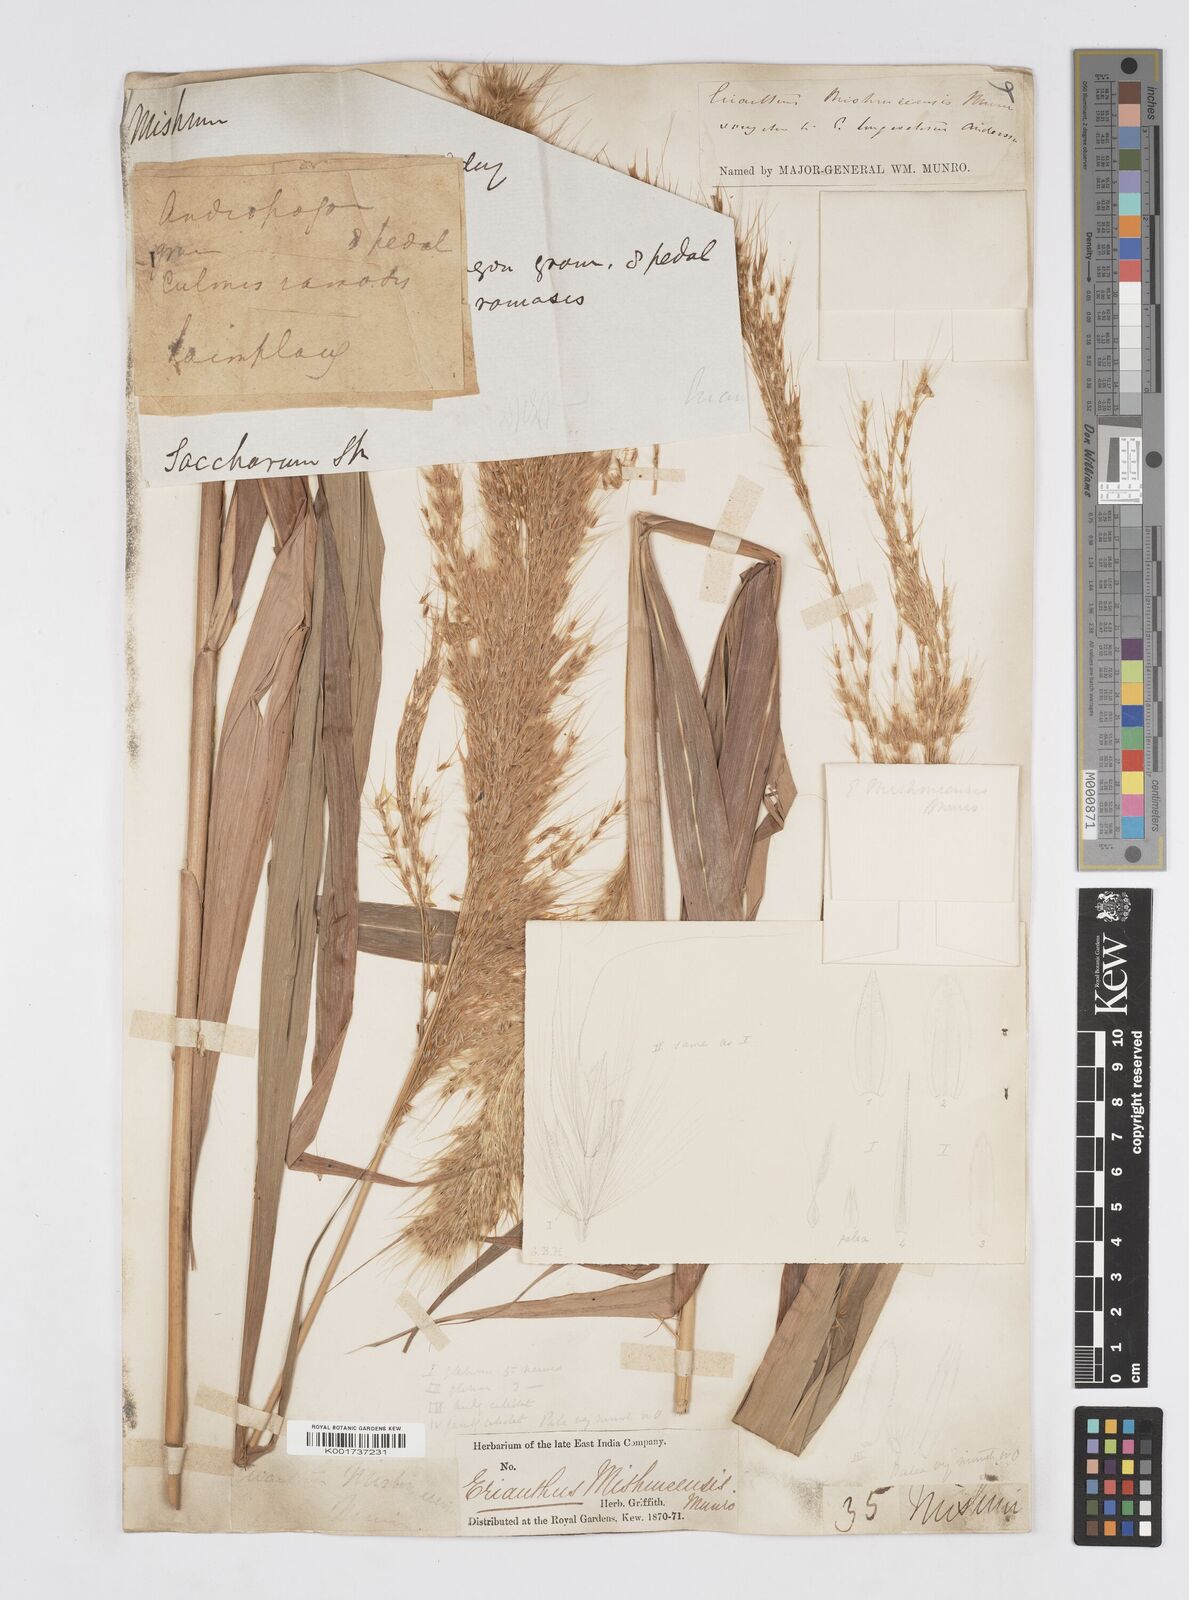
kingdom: Plantae
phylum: Tracheophyta
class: Liliopsida
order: Poales
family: Poaceae
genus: Melinis
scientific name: Melinis longiseta
